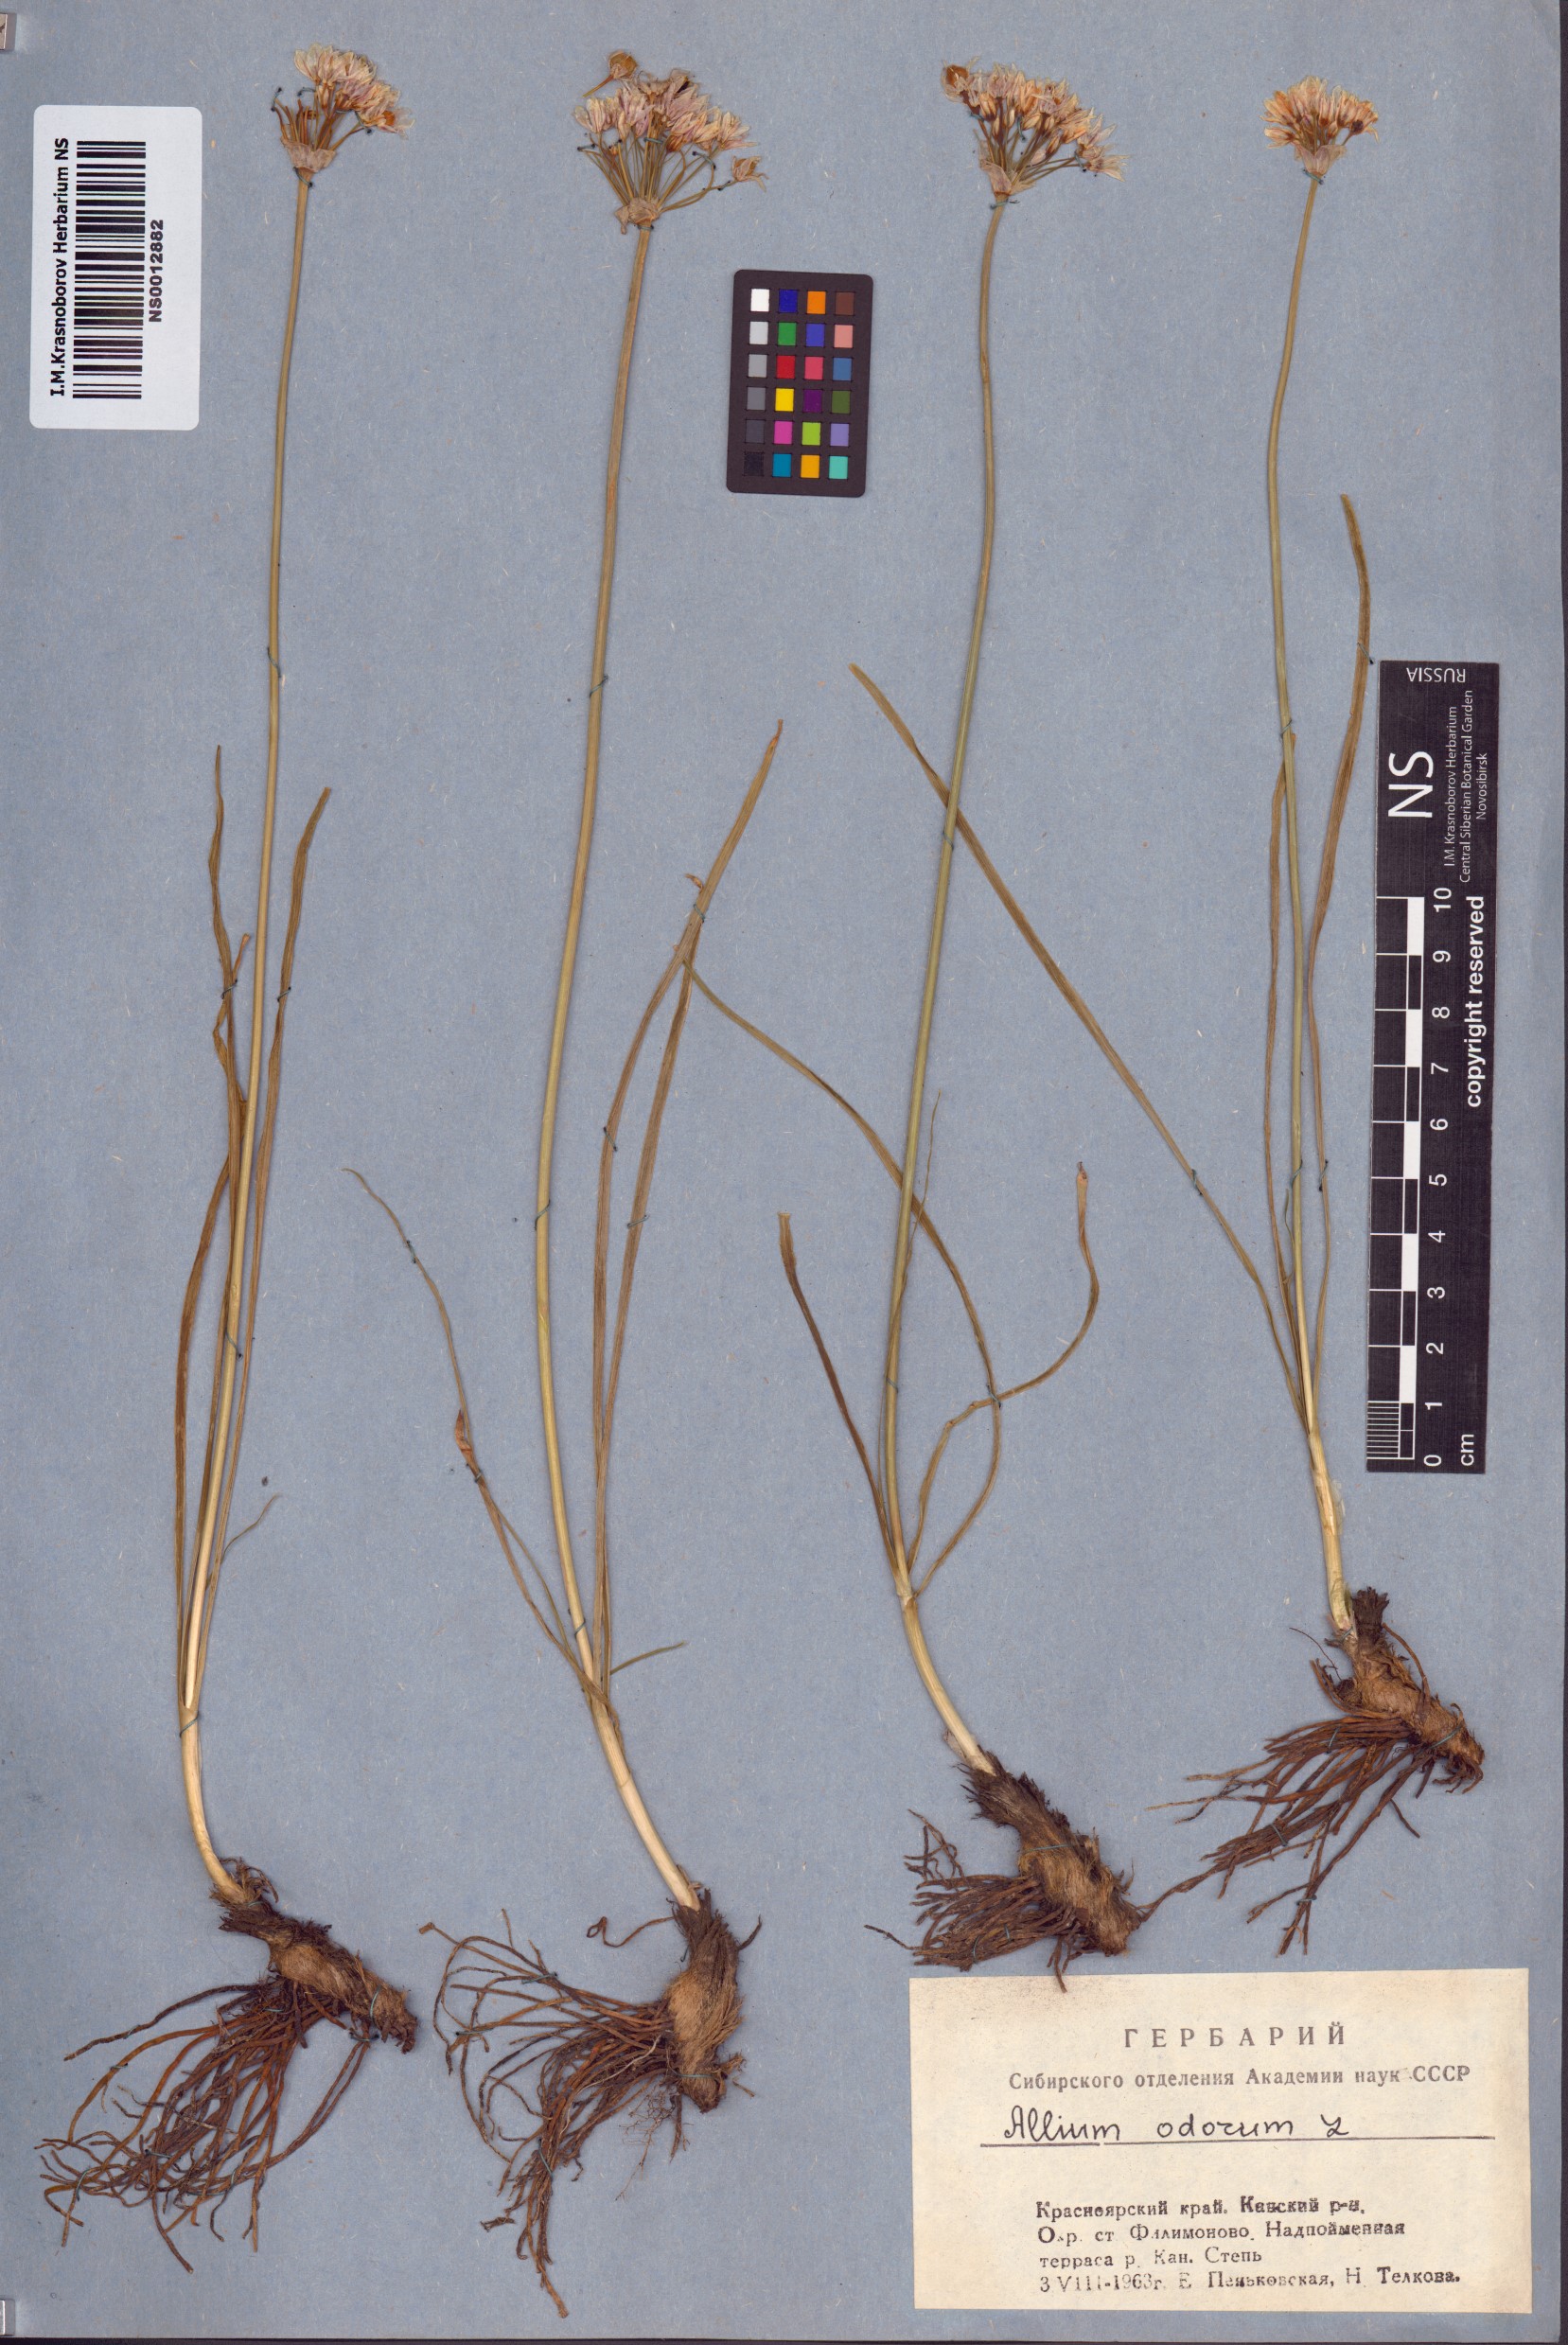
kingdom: Plantae
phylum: Tracheophyta
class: Liliopsida
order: Asparagales
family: Amaryllidaceae
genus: Allium
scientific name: Allium ramosum
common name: Fragrant garlic
